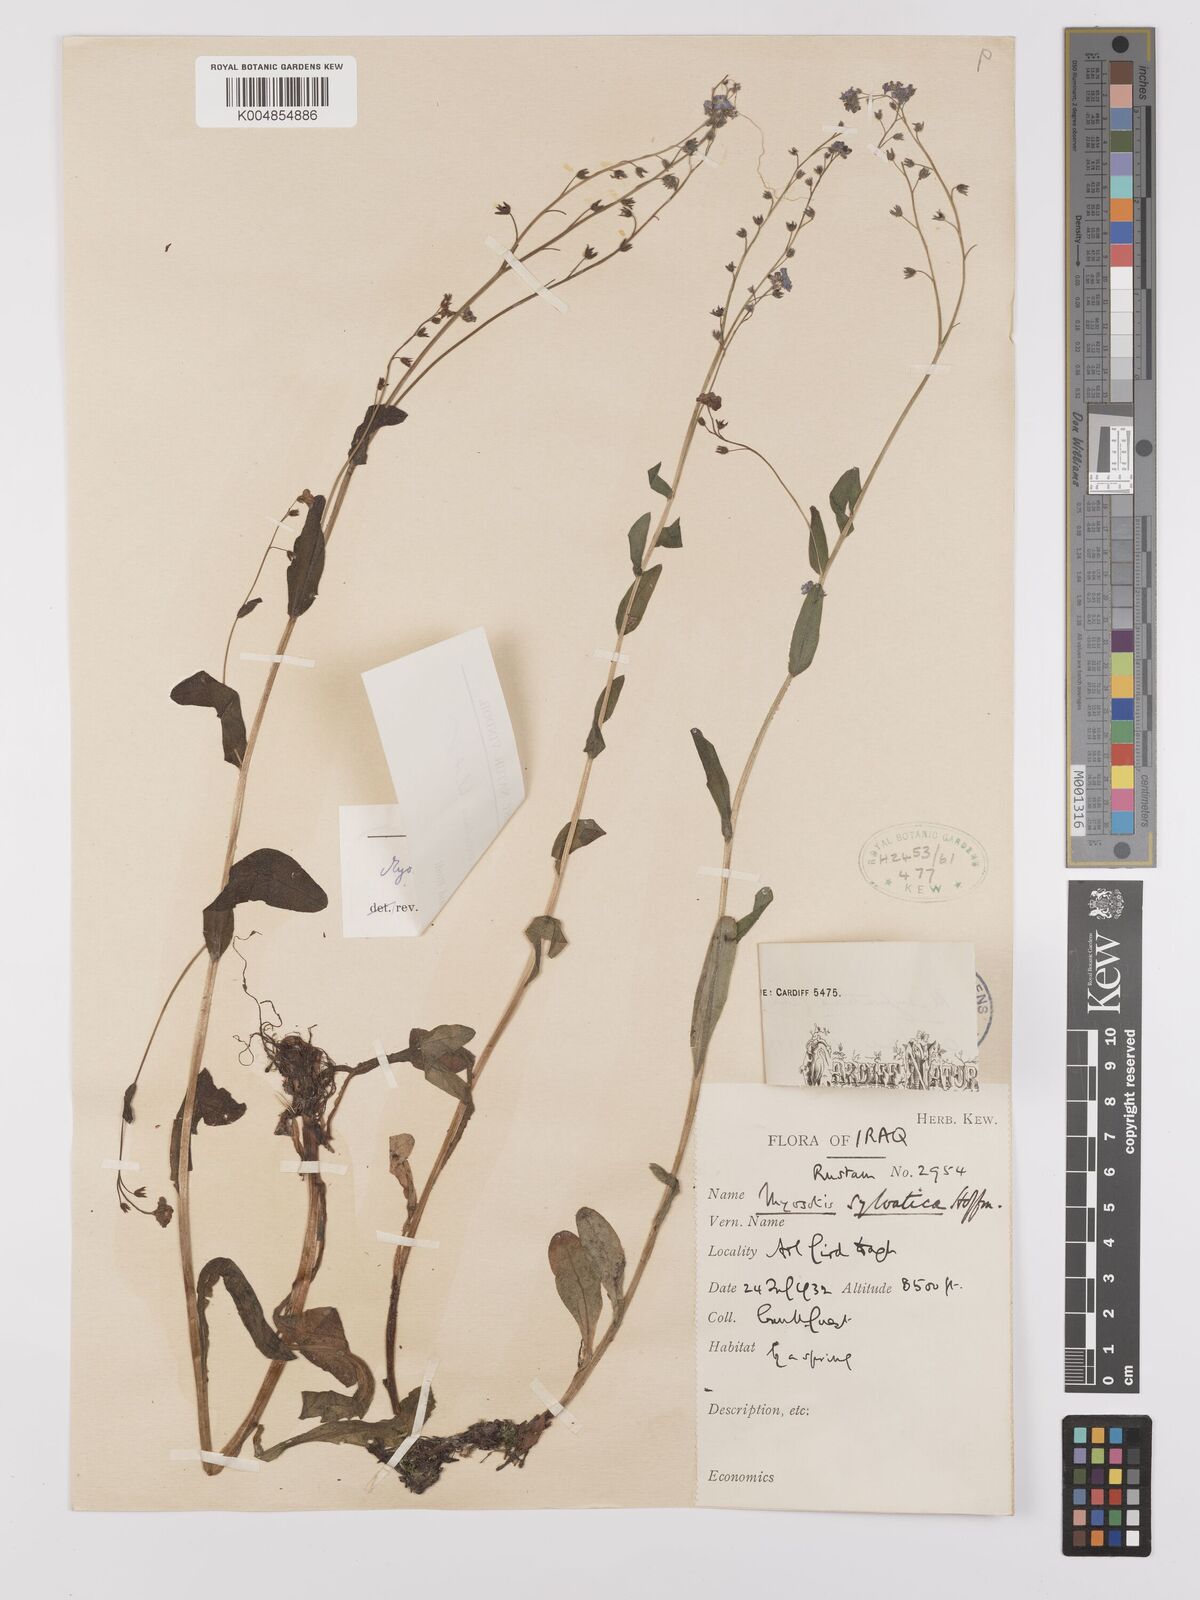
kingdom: Plantae
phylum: Tracheophyta
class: Magnoliopsida
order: Boraginales
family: Boraginaceae
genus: Myosotis
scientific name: Myosotis
